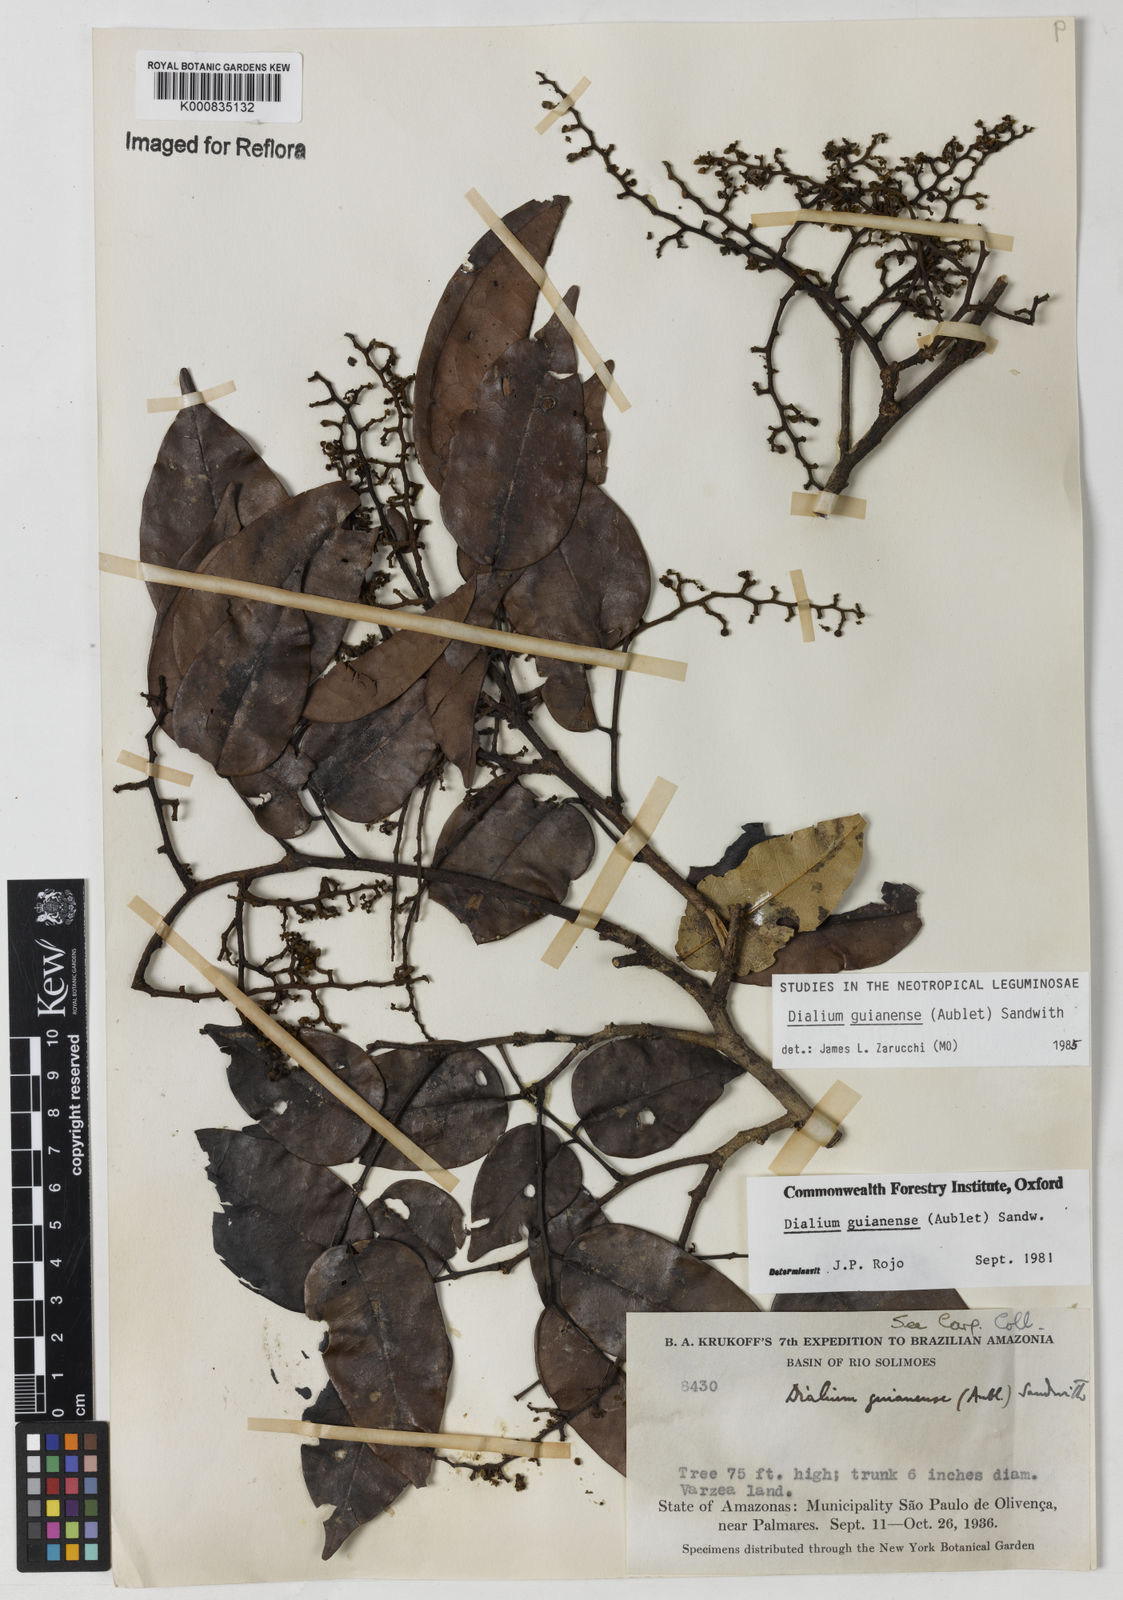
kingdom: Plantae
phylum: Tracheophyta
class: Magnoliopsida
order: Fabales
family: Fabaceae
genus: Dialium
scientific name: Dialium guianense
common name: Ironwood
